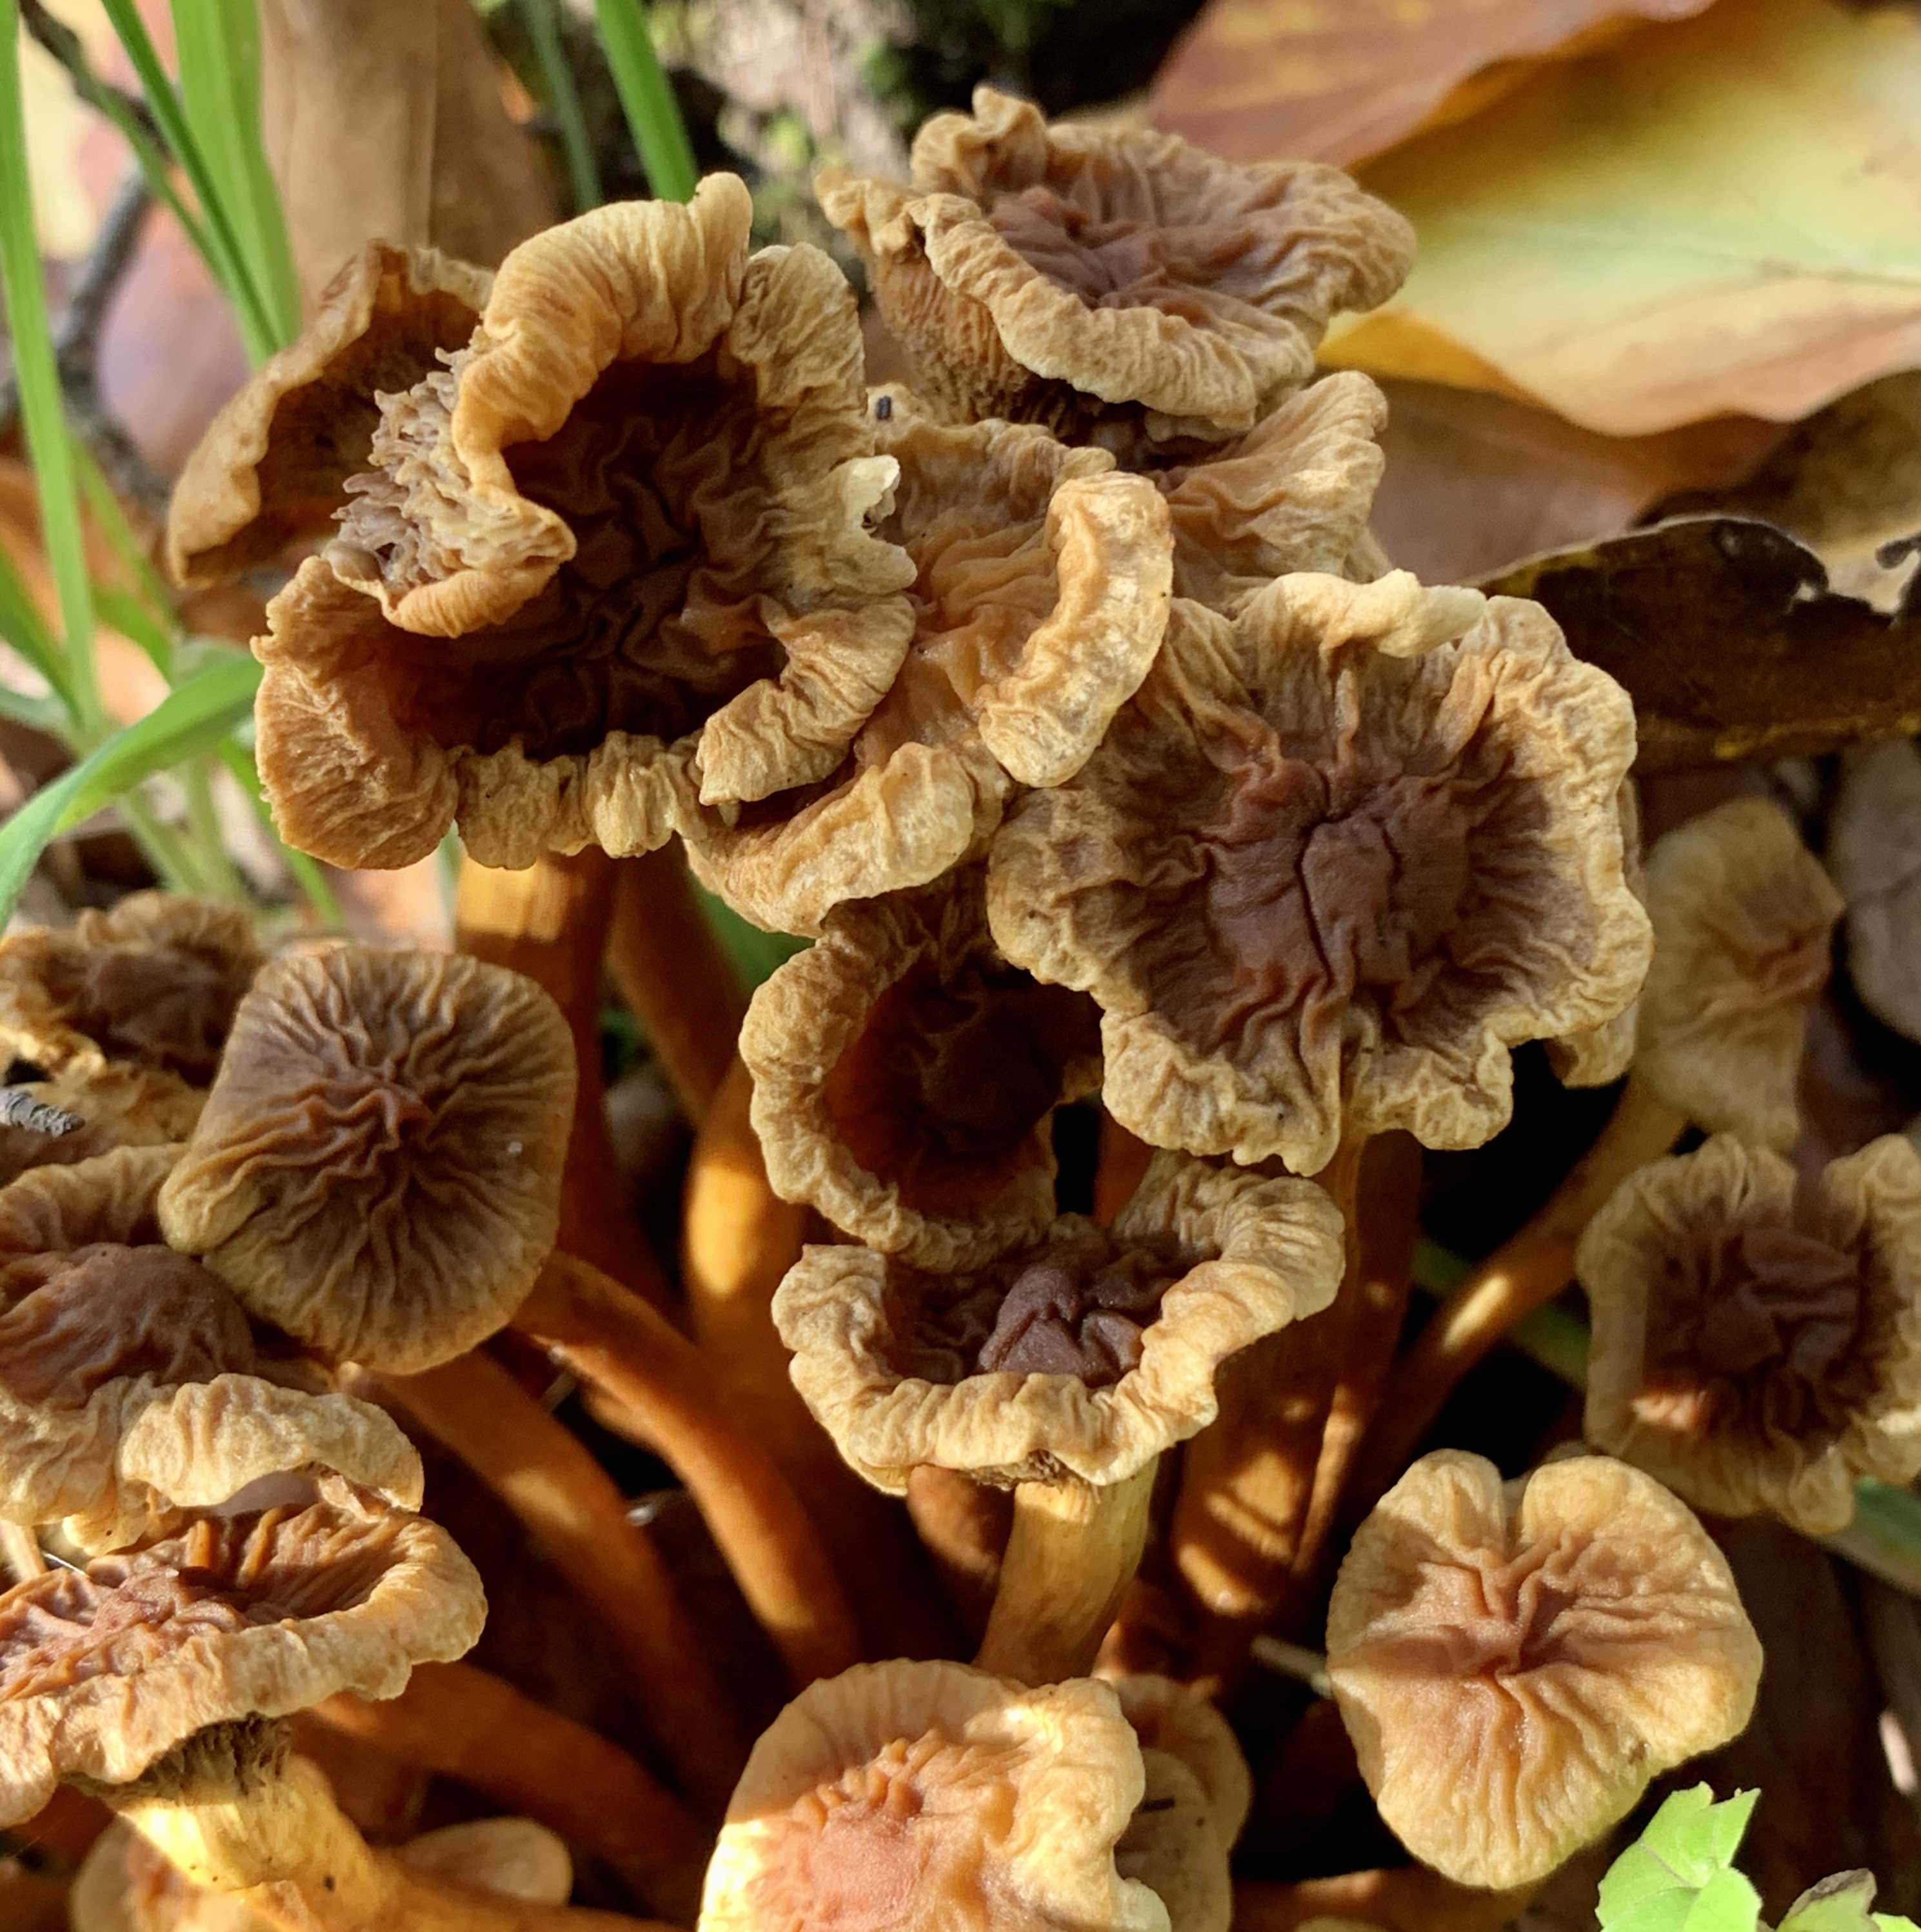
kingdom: Fungi
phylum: Basidiomycota
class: Agaricomycetes
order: Agaricales
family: Strophariaceae
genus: Hypholoma
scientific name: Hypholoma
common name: svovlhat
